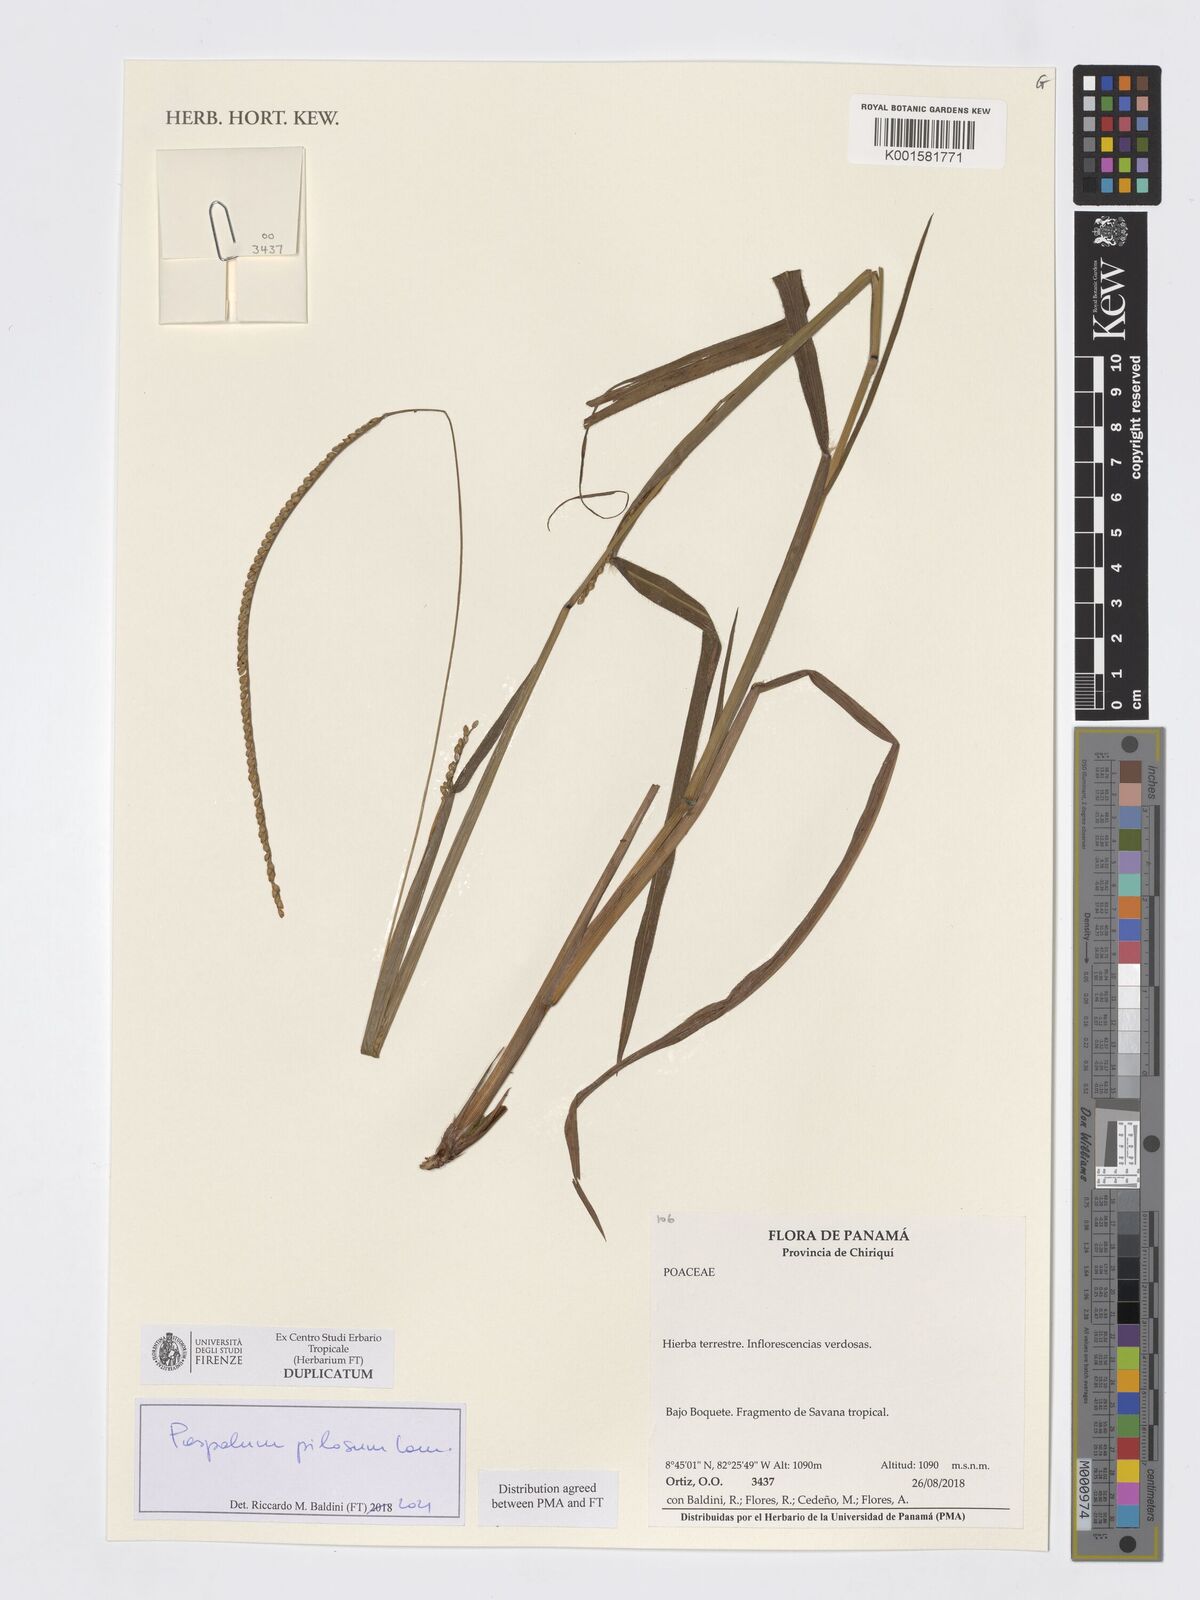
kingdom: Plantae
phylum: Tracheophyta
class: Liliopsida
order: Poales
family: Poaceae
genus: Paspalum
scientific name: Paspalum pilosum
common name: Crowngrass
